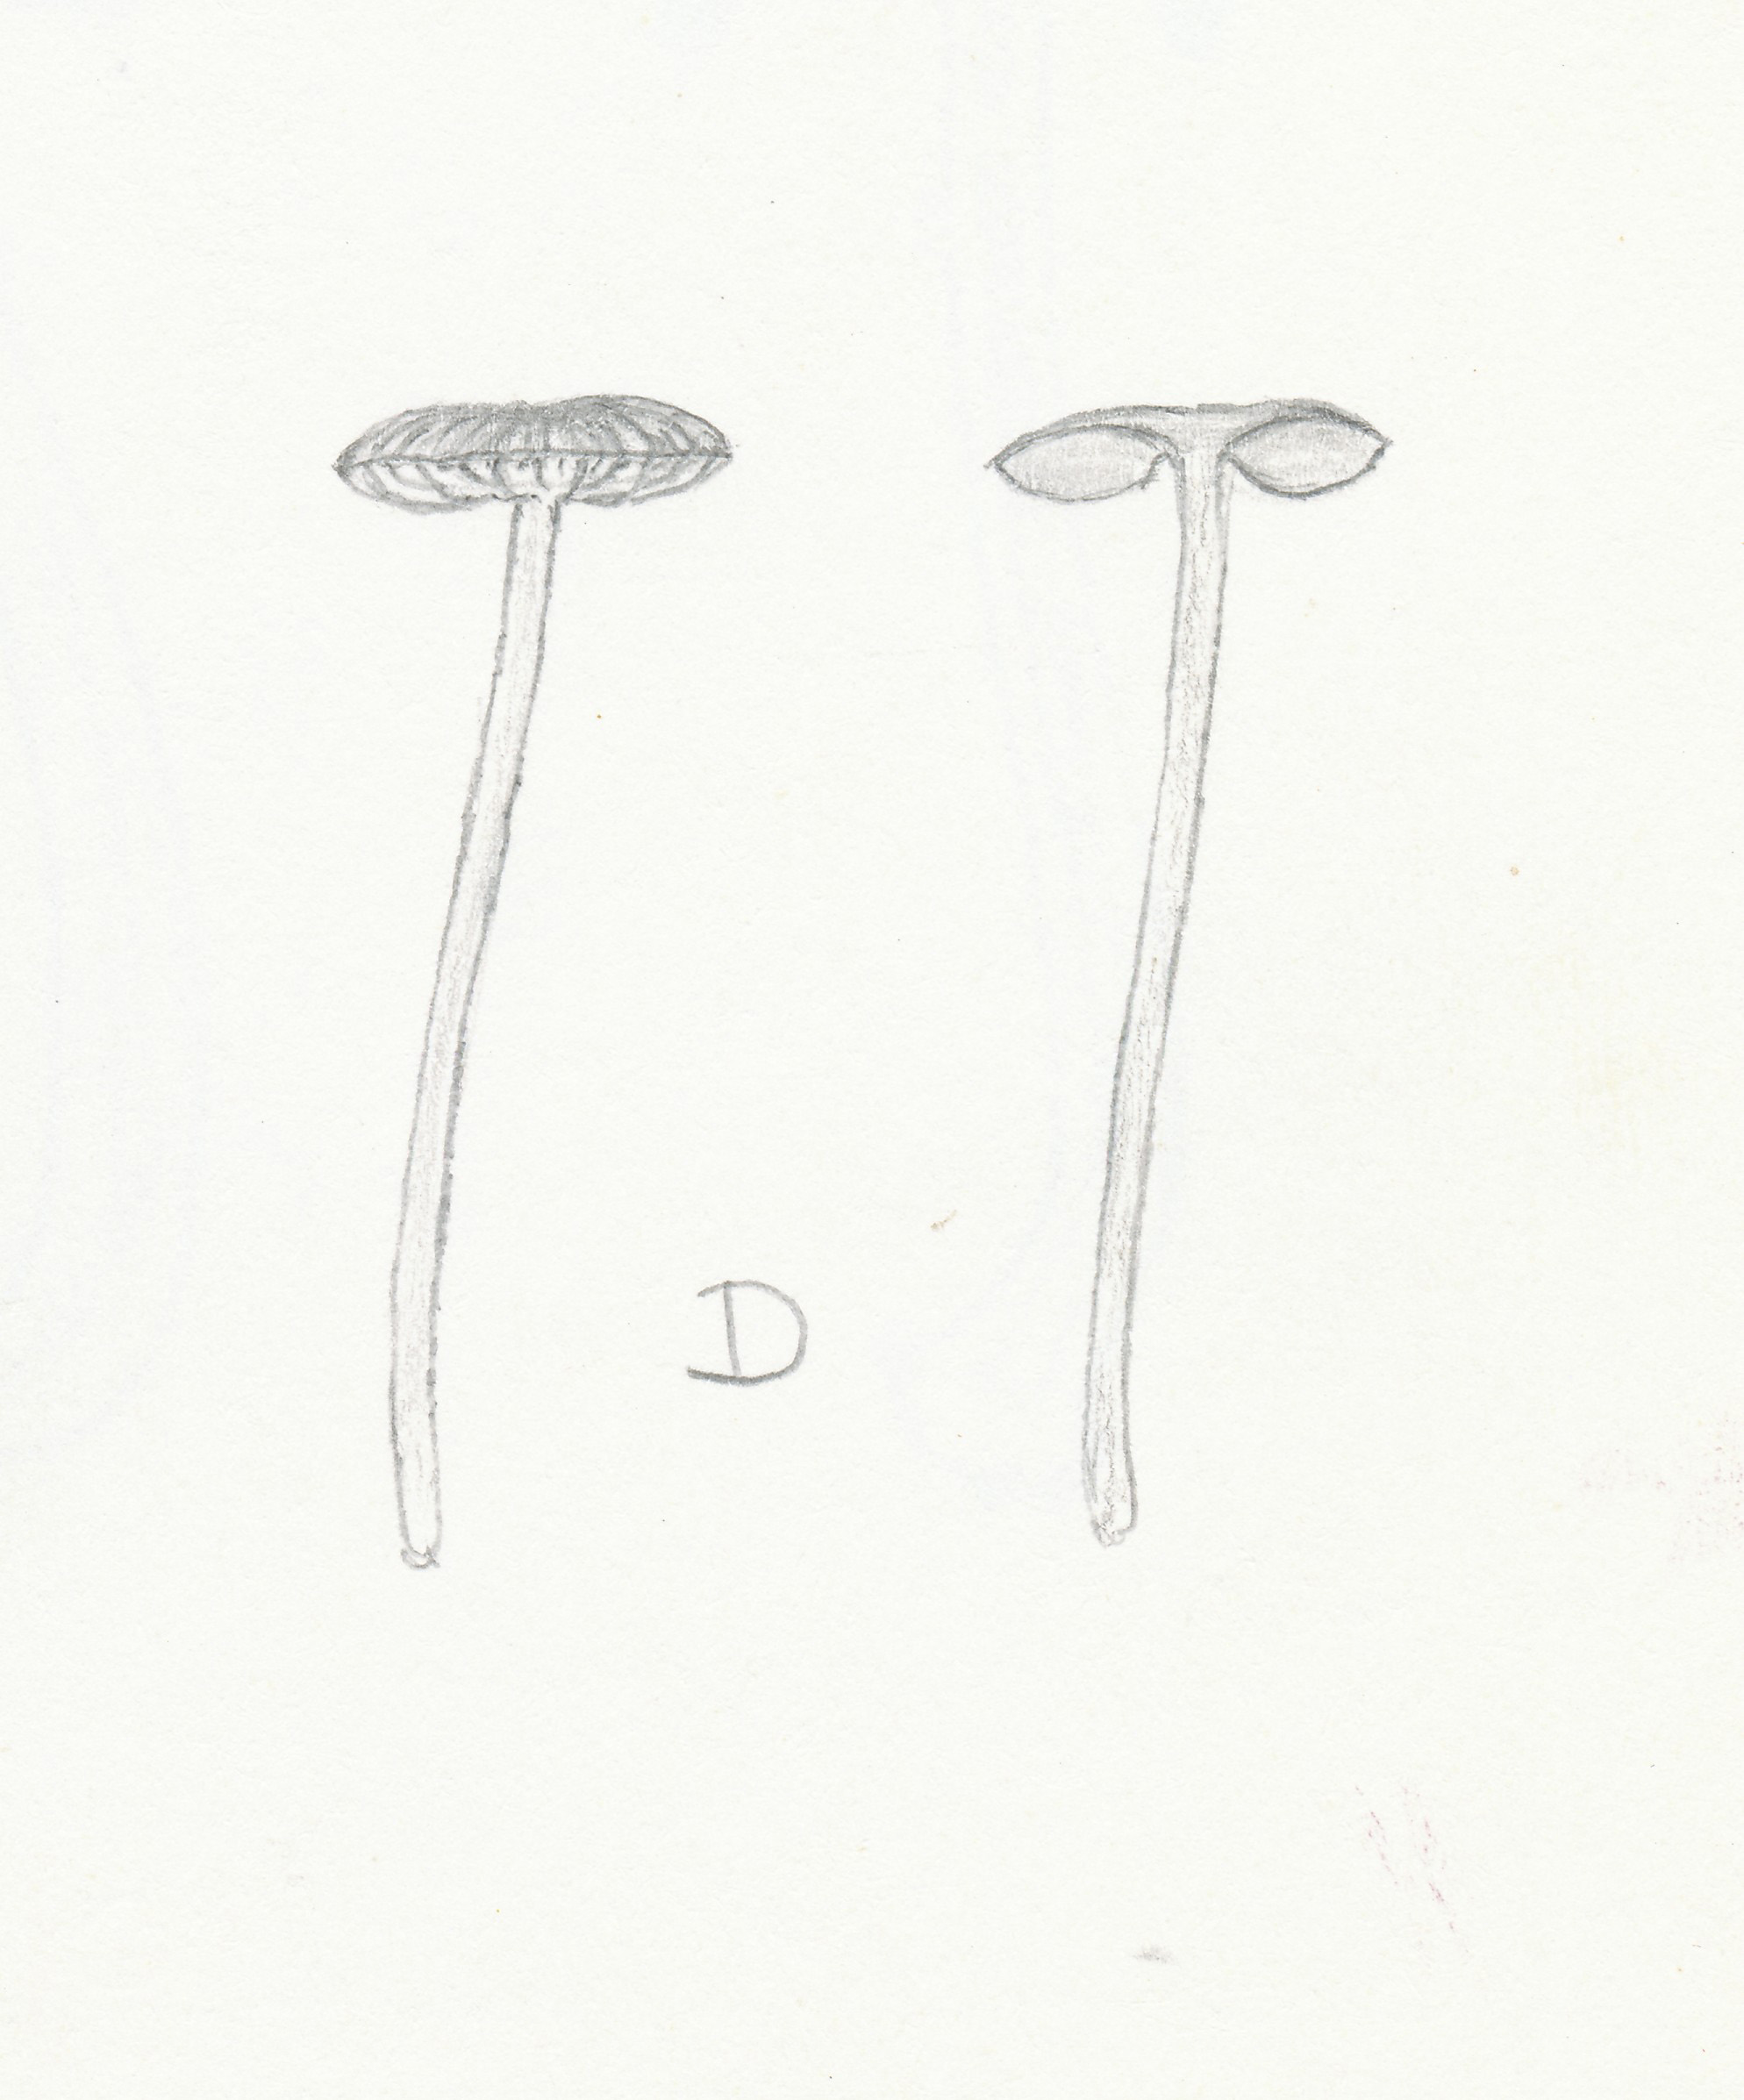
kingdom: Fungi
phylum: Basidiomycota
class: Agaricomycetes
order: Agaricales
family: Entolomataceae
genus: Entoloma
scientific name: Entoloma
